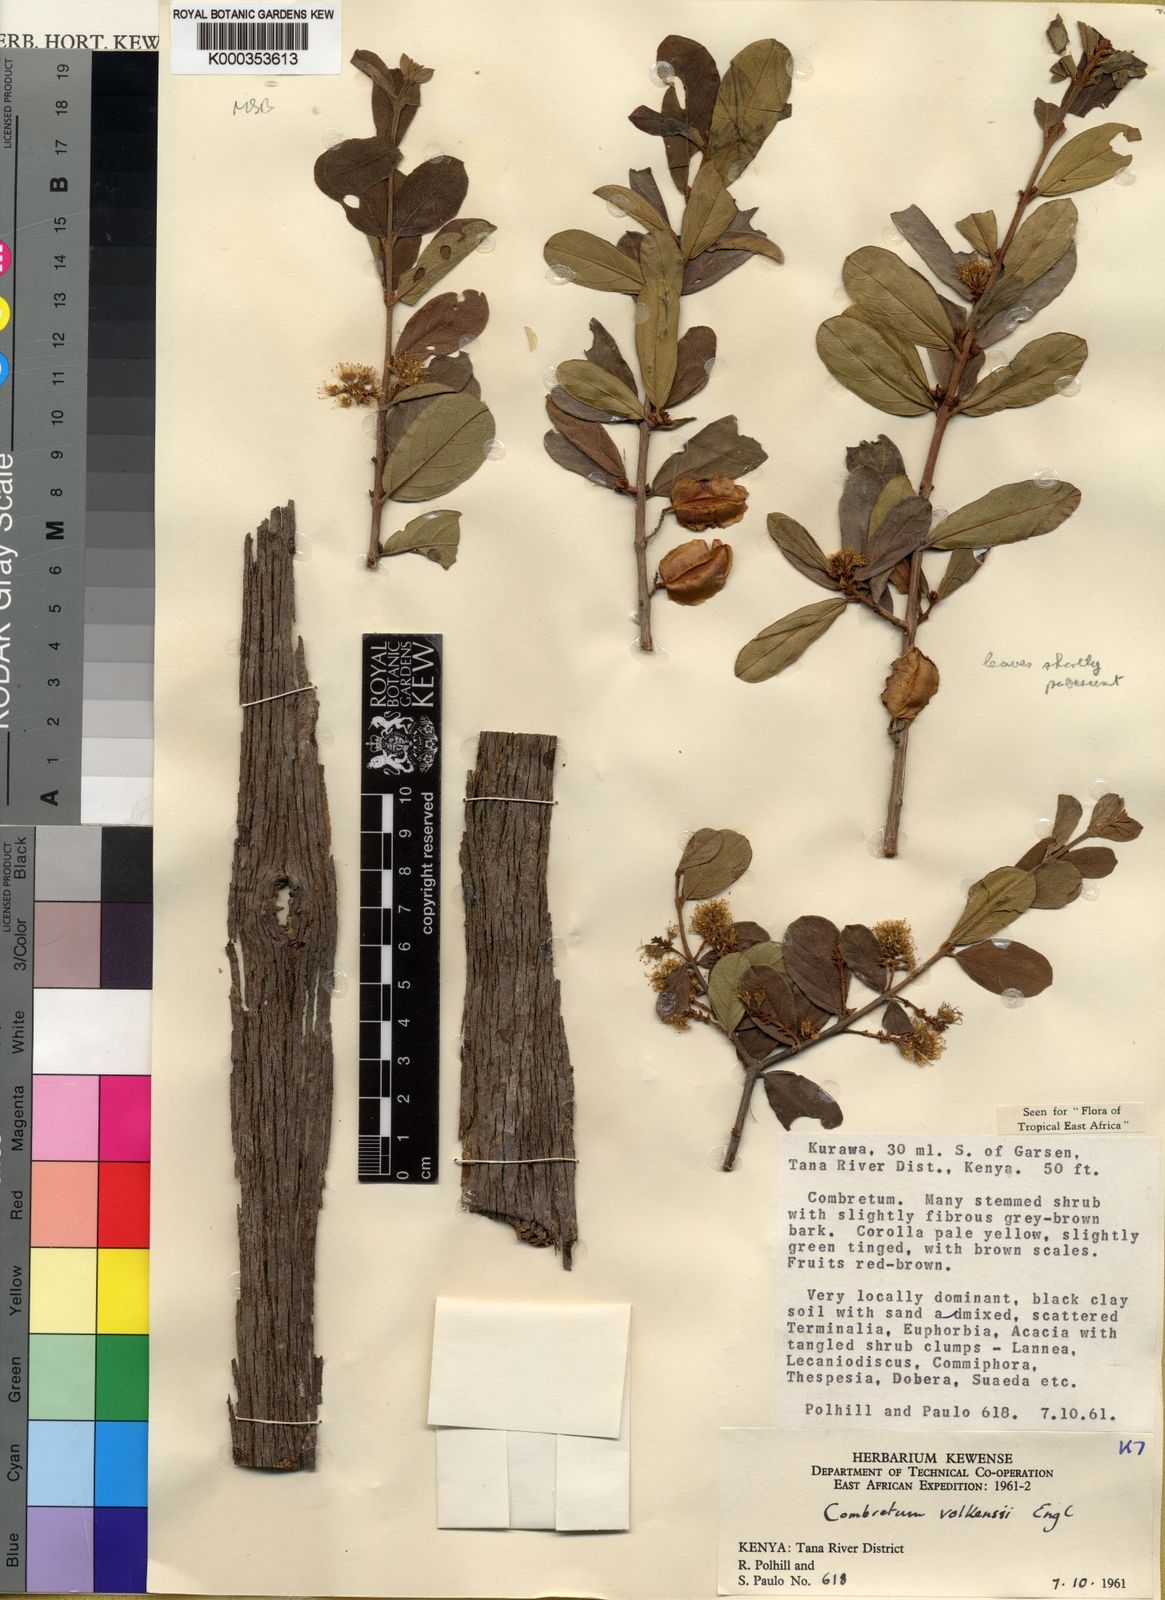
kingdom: Plantae
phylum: Tracheophyta
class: Magnoliopsida
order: Myrtales
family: Combretaceae
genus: Combretum
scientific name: Combretum hereroense
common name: Russet bushwillow
